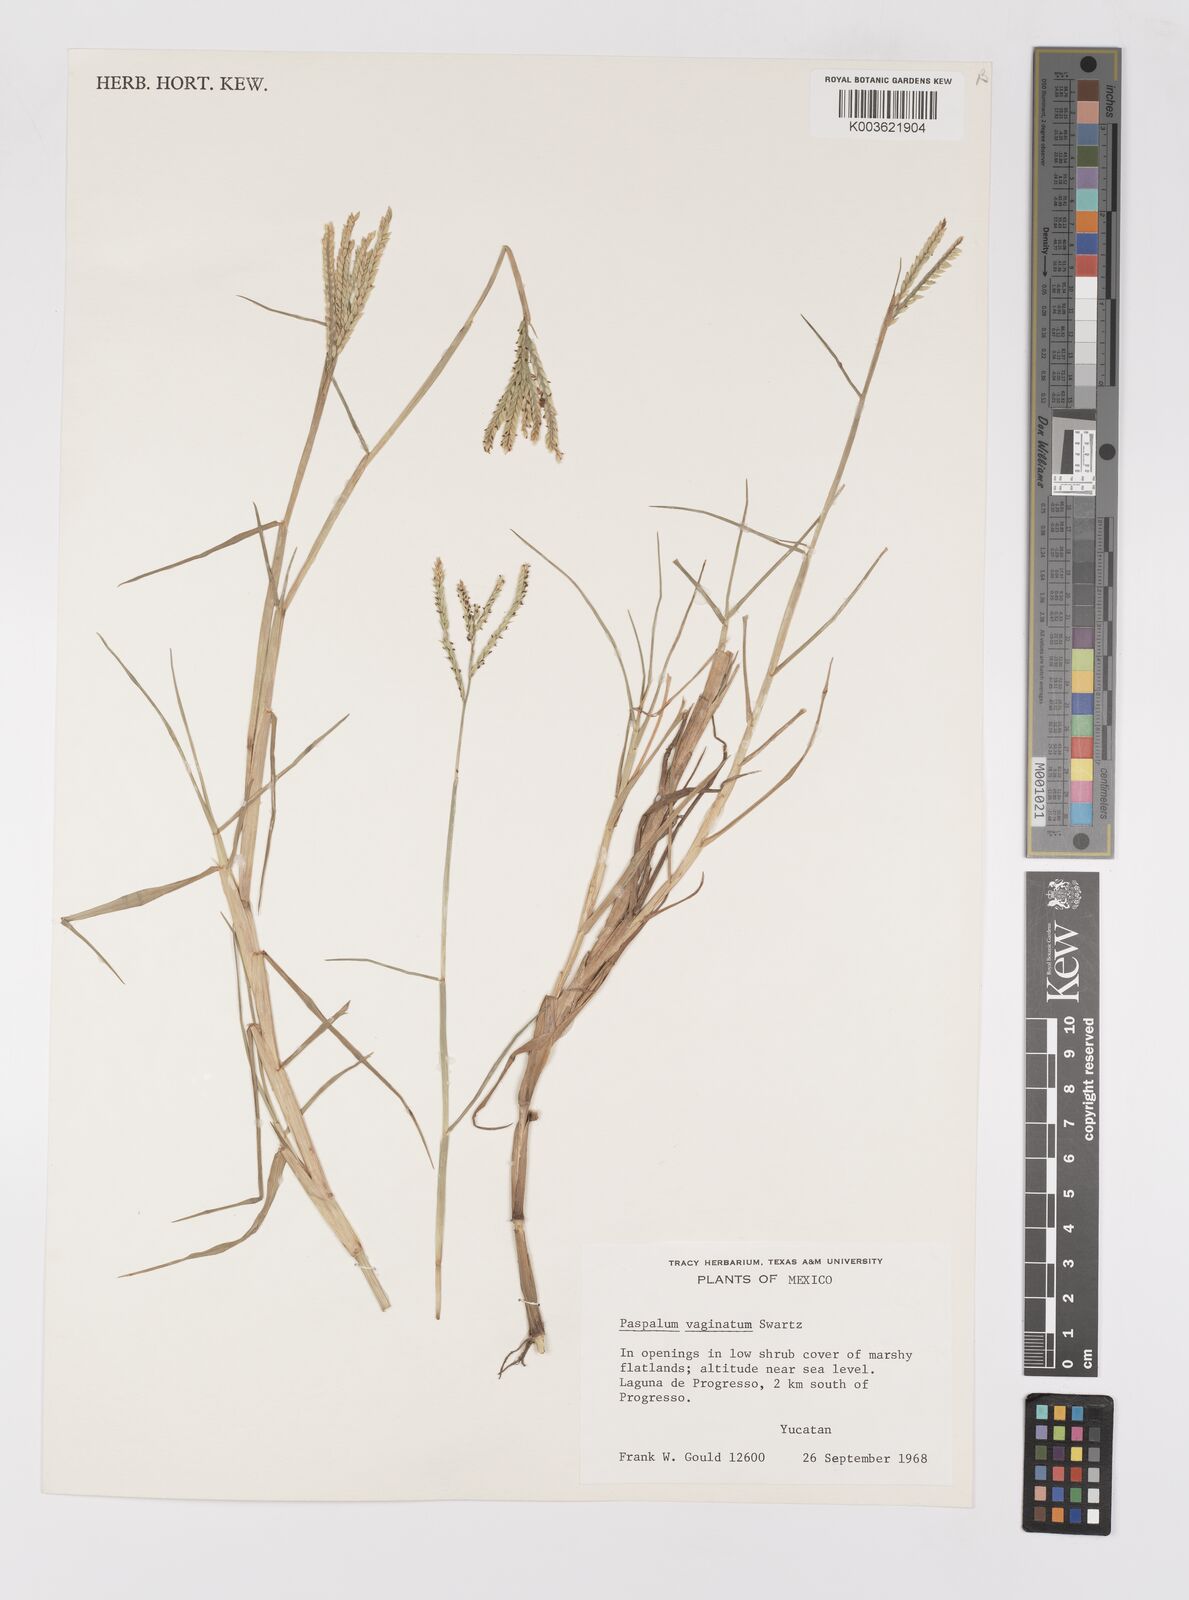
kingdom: Plantae
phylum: Tracheophyta
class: Liliopsida
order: Poales
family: Poaceae
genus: Paspalum
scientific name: Paspalum vaginatum
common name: Seashore paspalum
